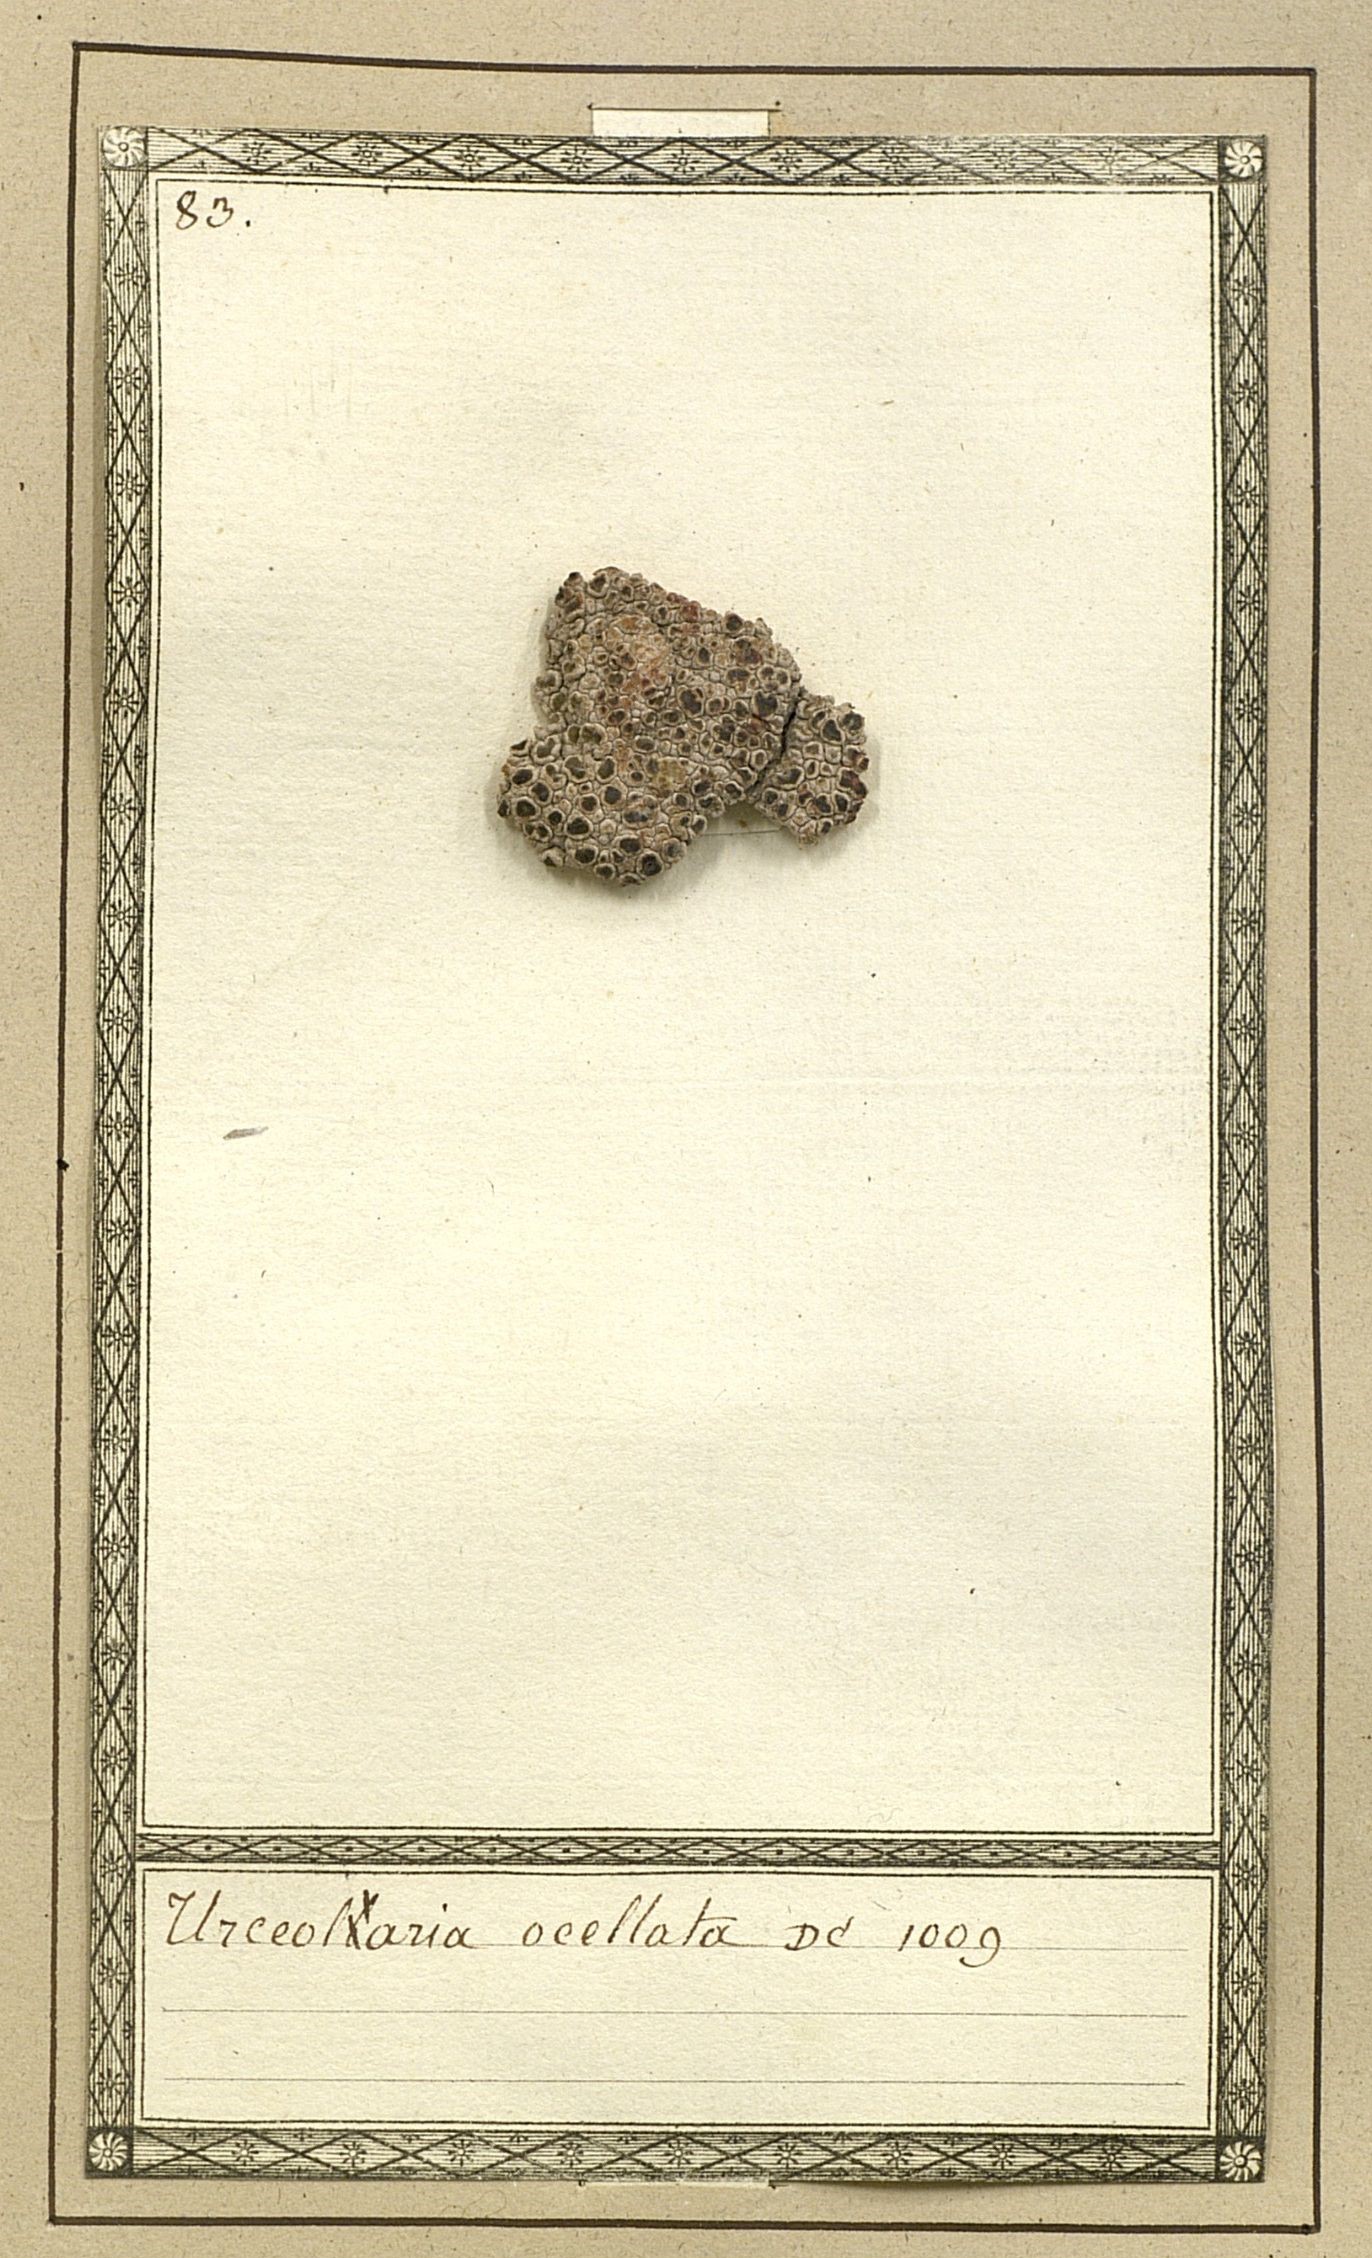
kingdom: Fungi
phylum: Ascomycota
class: Lecanoromycetes
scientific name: Lecanoromycetes
